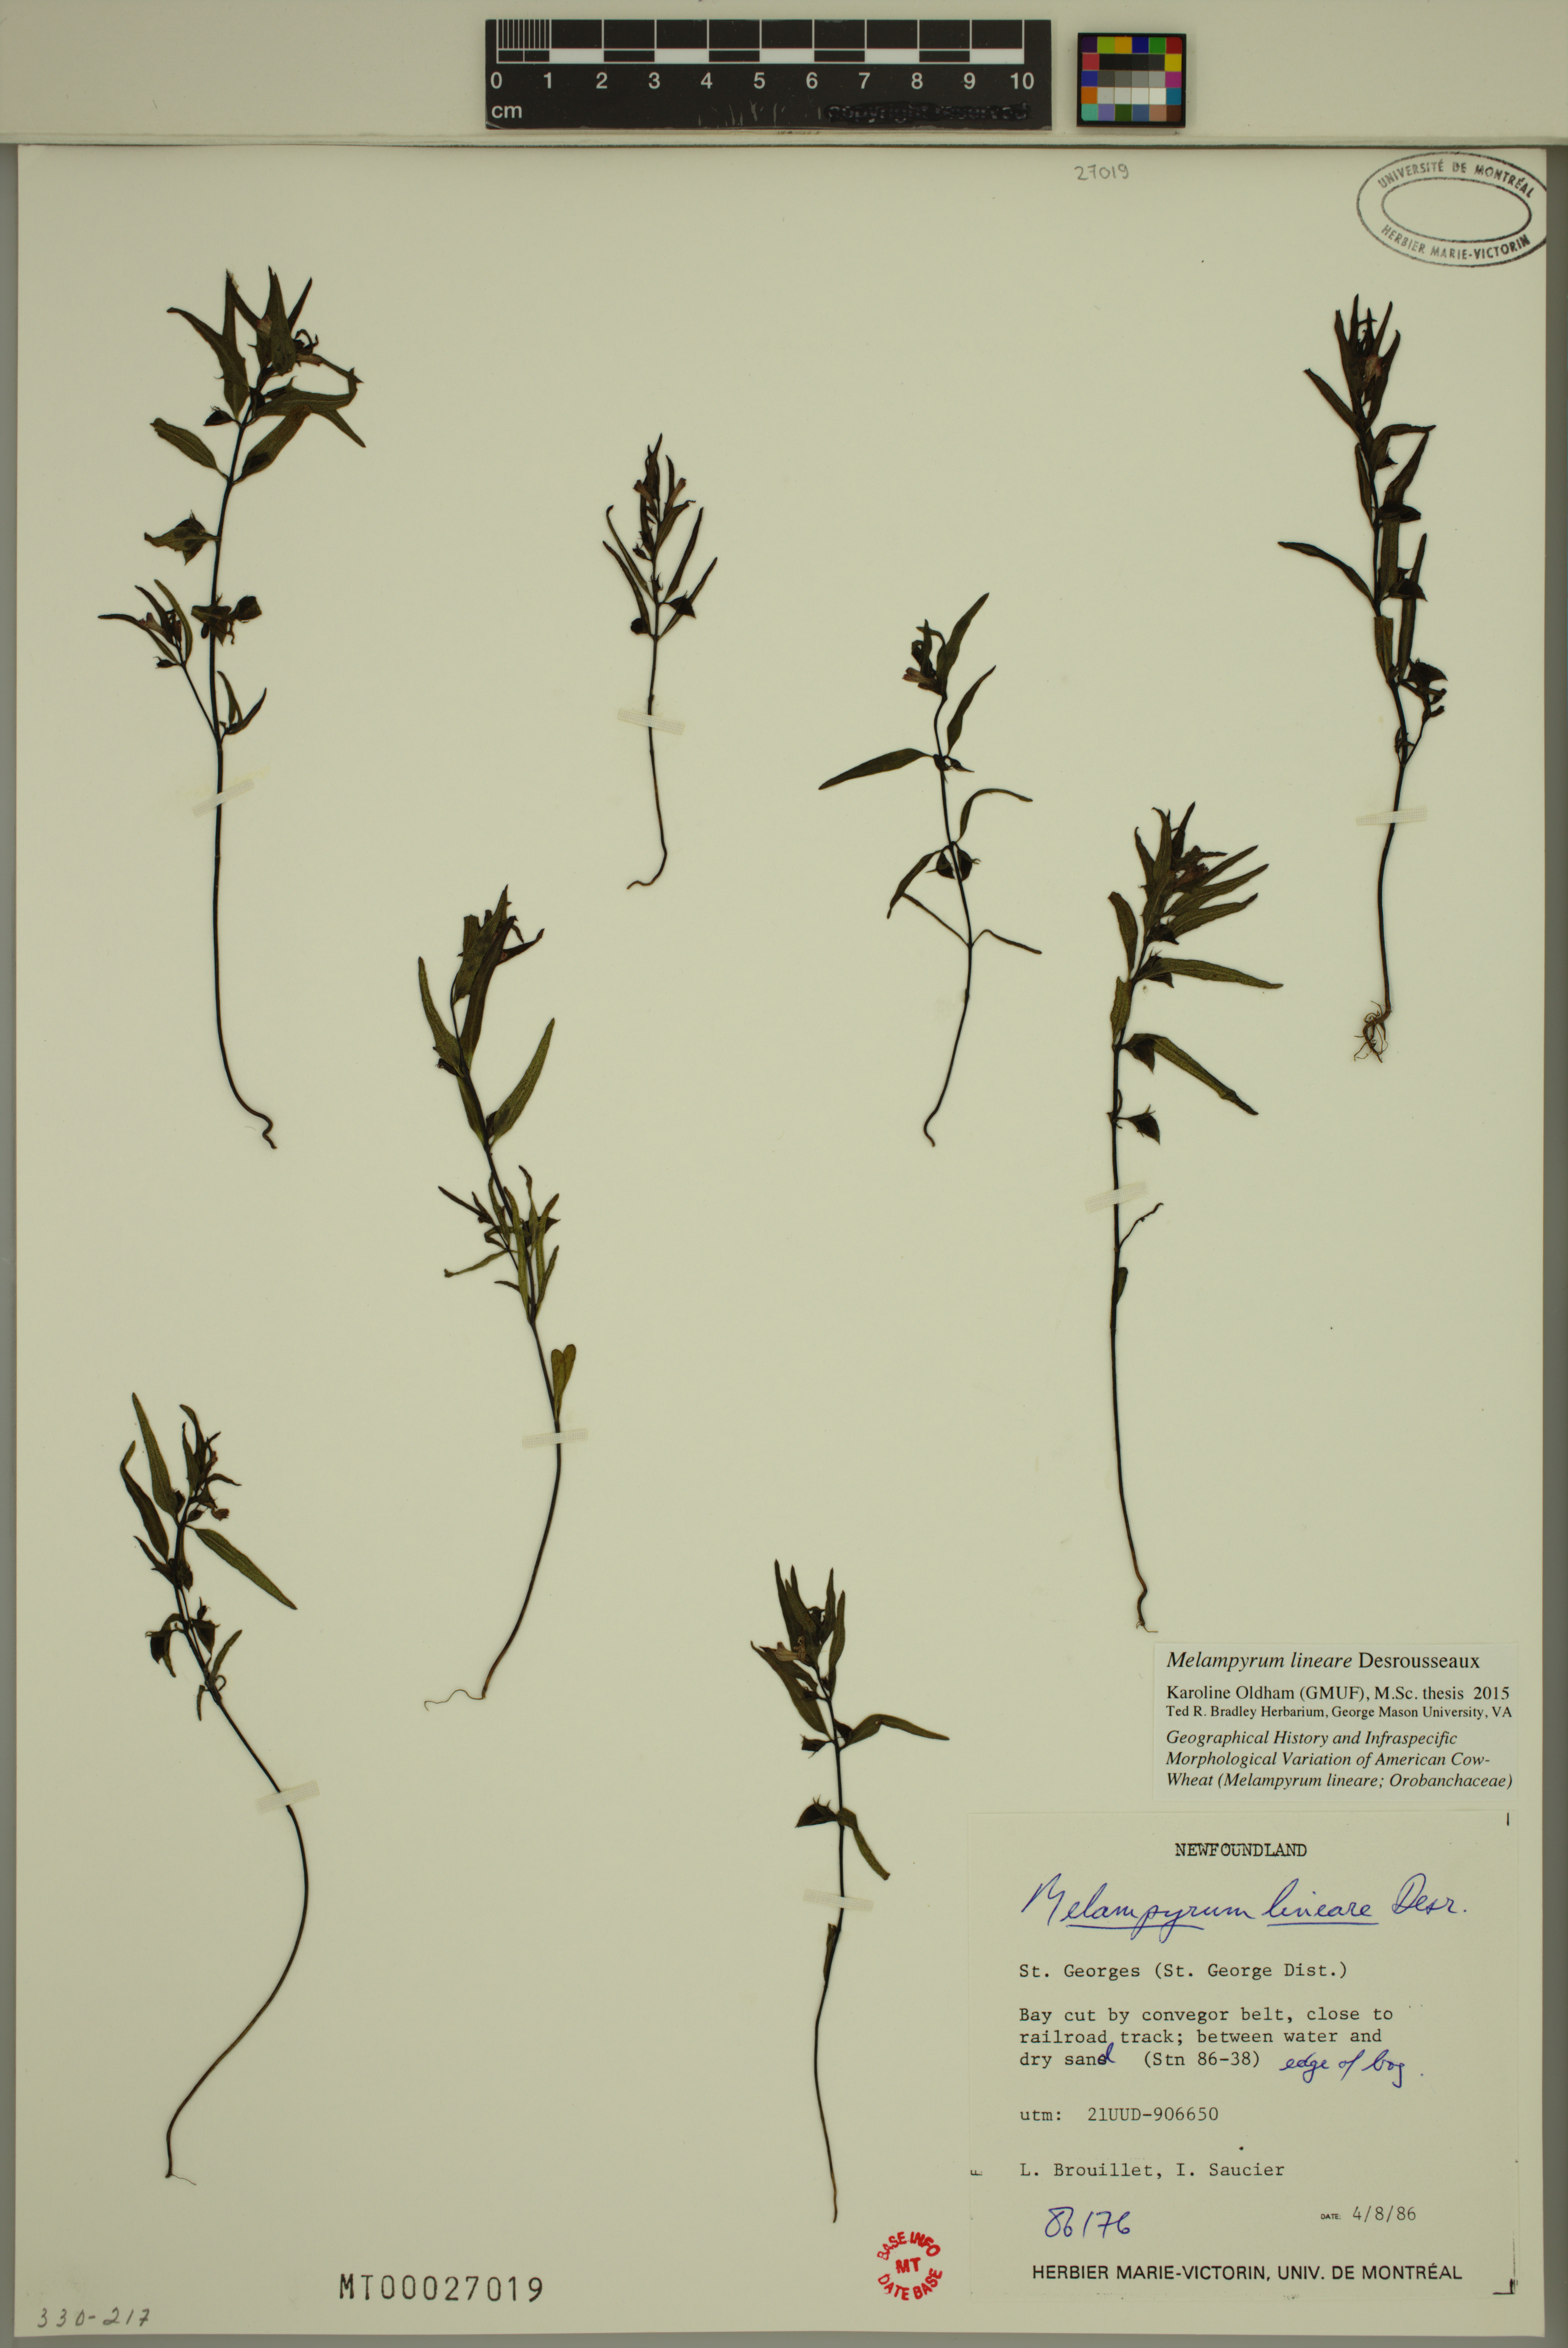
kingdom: Plantae
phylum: Tracheophyta
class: Magnoliopsida
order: Lamiales
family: Orobanchaceae
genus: Melampyrum
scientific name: Melampyrum lineare
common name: American cow-wheat
